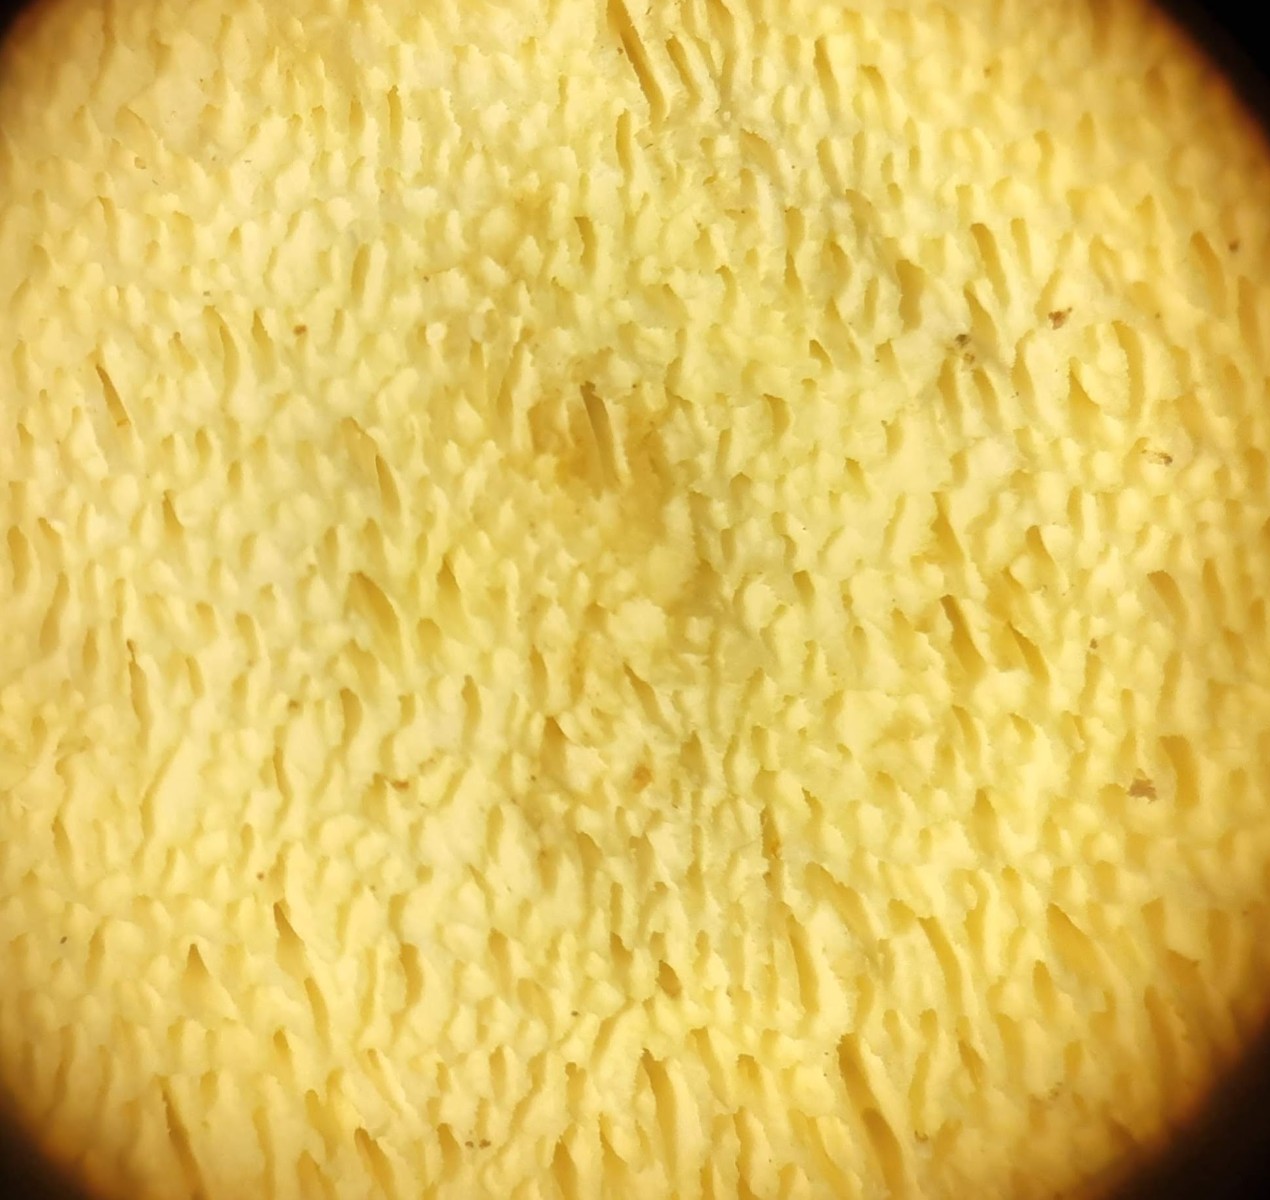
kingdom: Fungi
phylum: Basidiomycota
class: Agaricomycetes
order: Polyporales
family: Fomitopsidaceae
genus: Daedalea
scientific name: Daedalea xantha
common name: gul sejporesvamp
